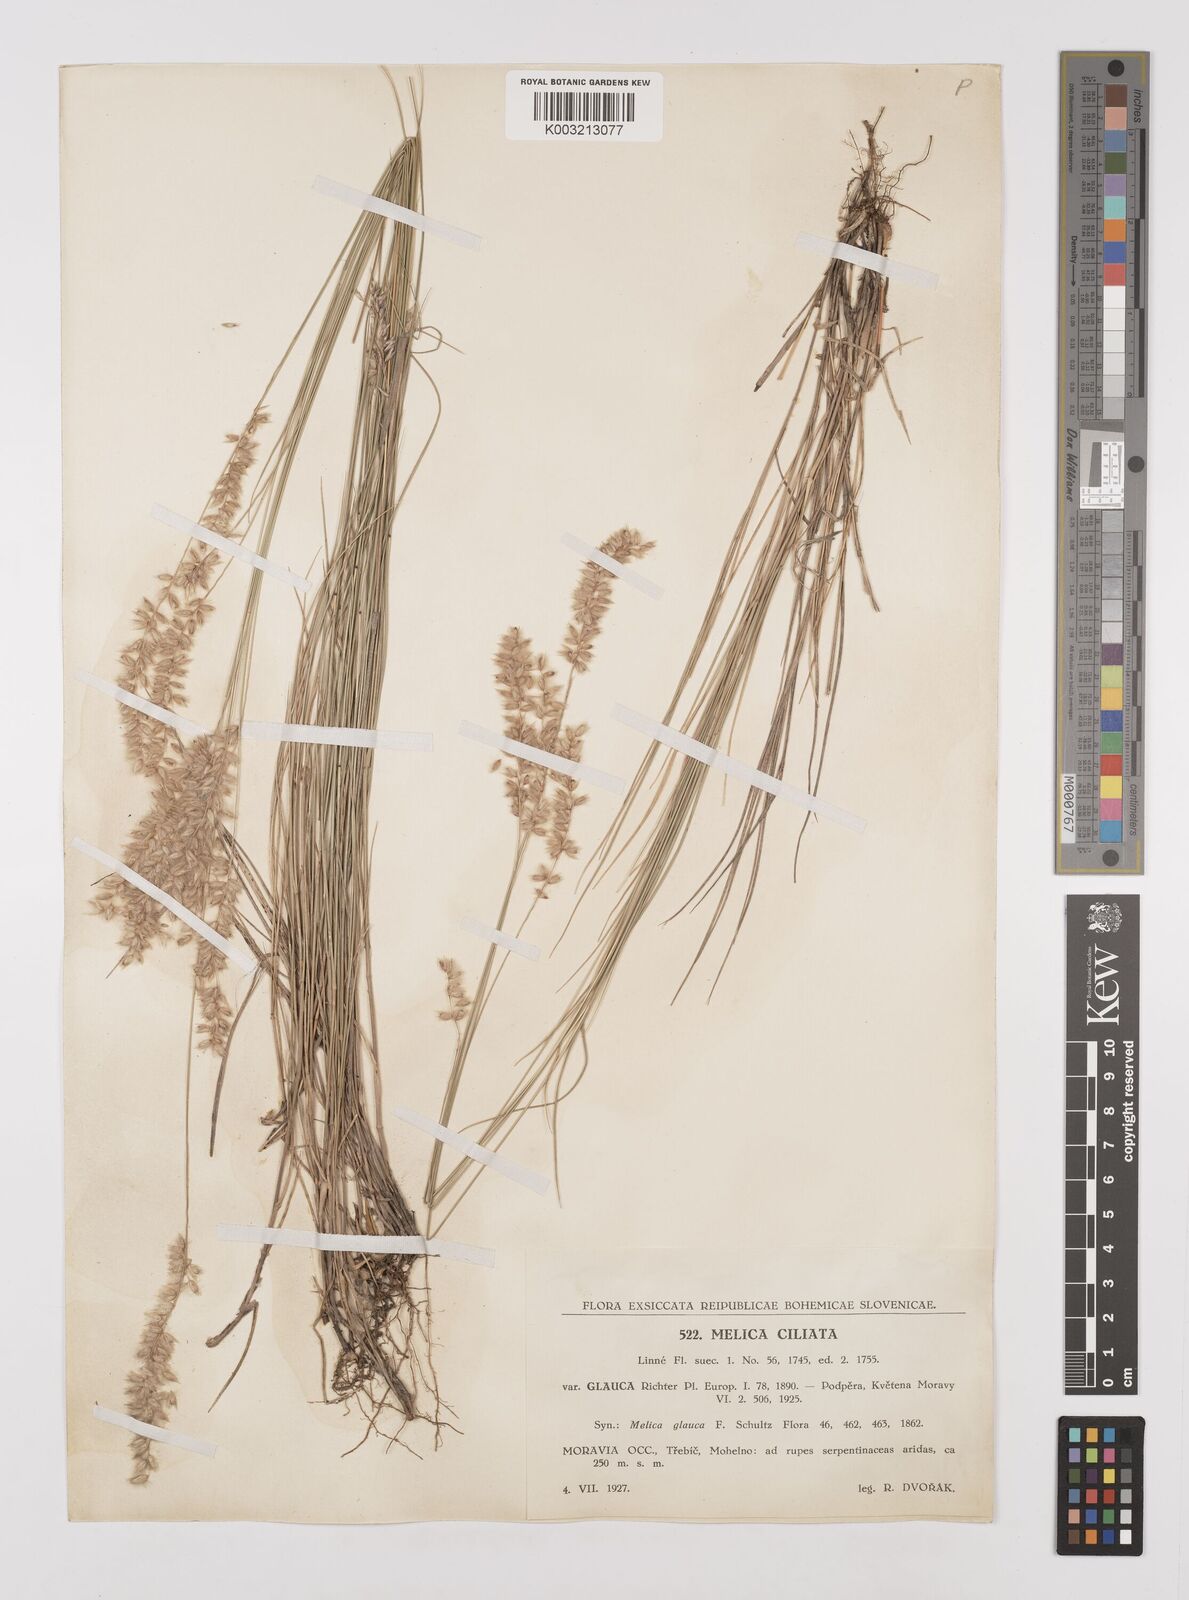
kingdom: Plantae
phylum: Tracheophyta
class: Liliopsida
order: Poales
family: Poaceae
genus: Melica
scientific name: Melica ciliata
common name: Hairy melicgrass
